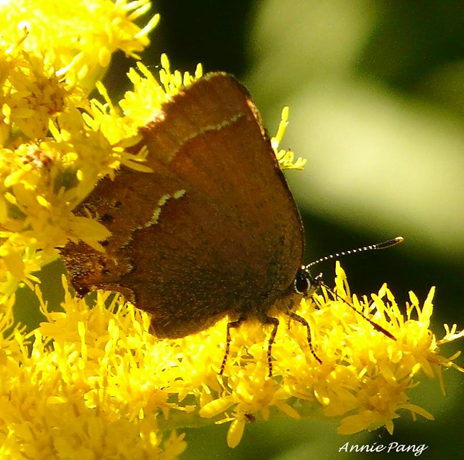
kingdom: Animalia
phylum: Arthropoda
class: Insecta
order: Lepidoptera
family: Lycaenidae
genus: Mitoura
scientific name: Mitoura gryneus
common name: Juniper Hairstreak
